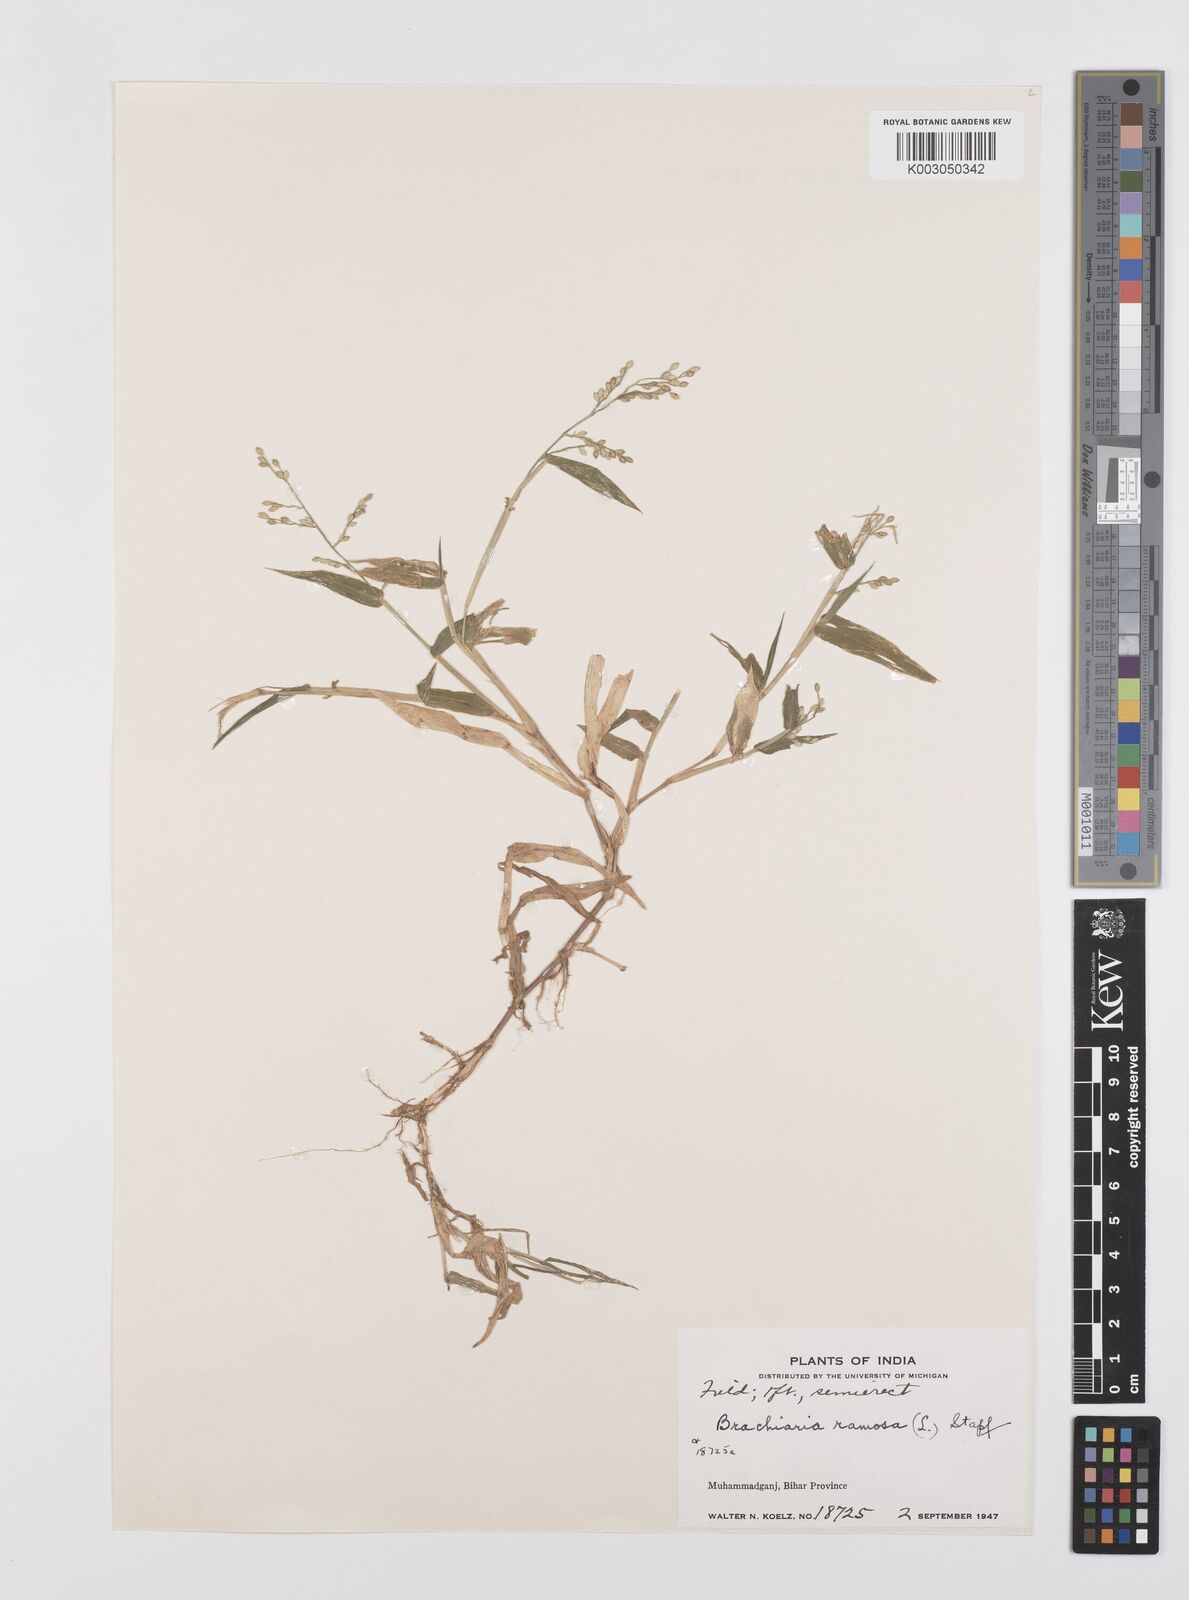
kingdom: Plantae
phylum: Tracheophyta
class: Liliopsida
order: Poales
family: Poaceae
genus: Urochloa
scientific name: Urochloa ramosa
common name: Browntop millet
